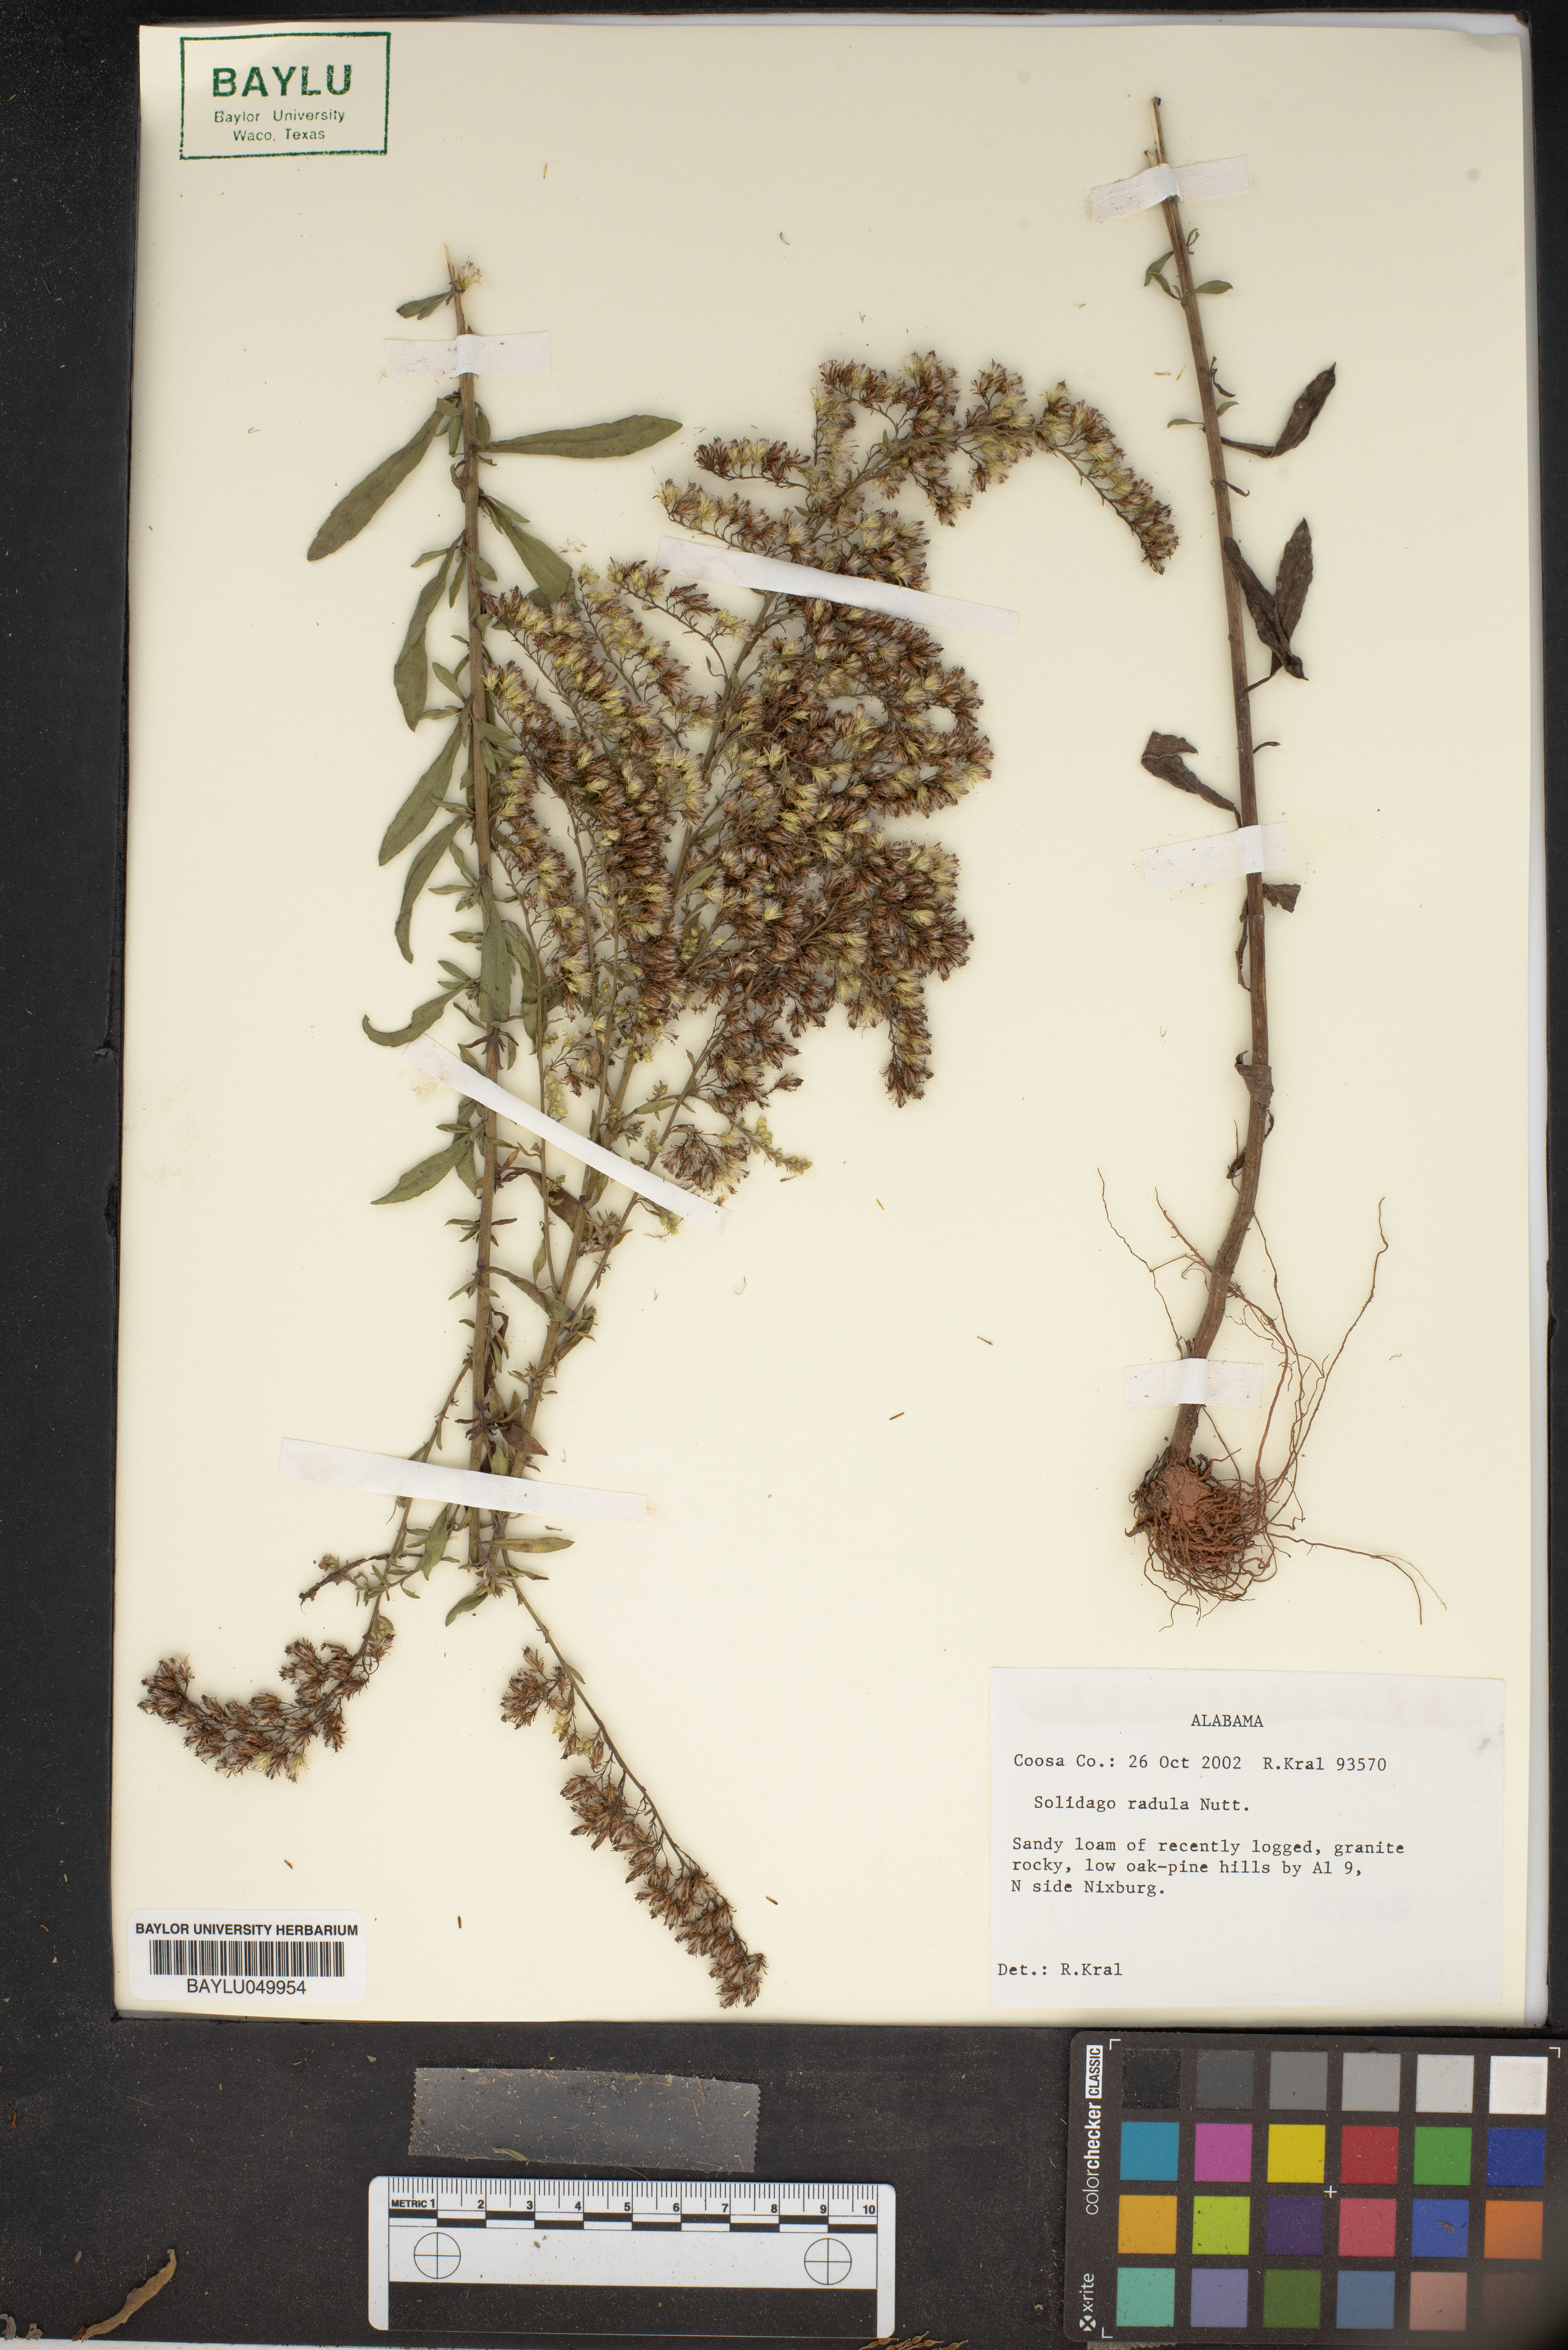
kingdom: Plantae
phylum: Tracheophyta
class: Magnoliopsida
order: Asterales
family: Asteraceae
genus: Solidago
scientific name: Solidago radula
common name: Western rough goldenrod
